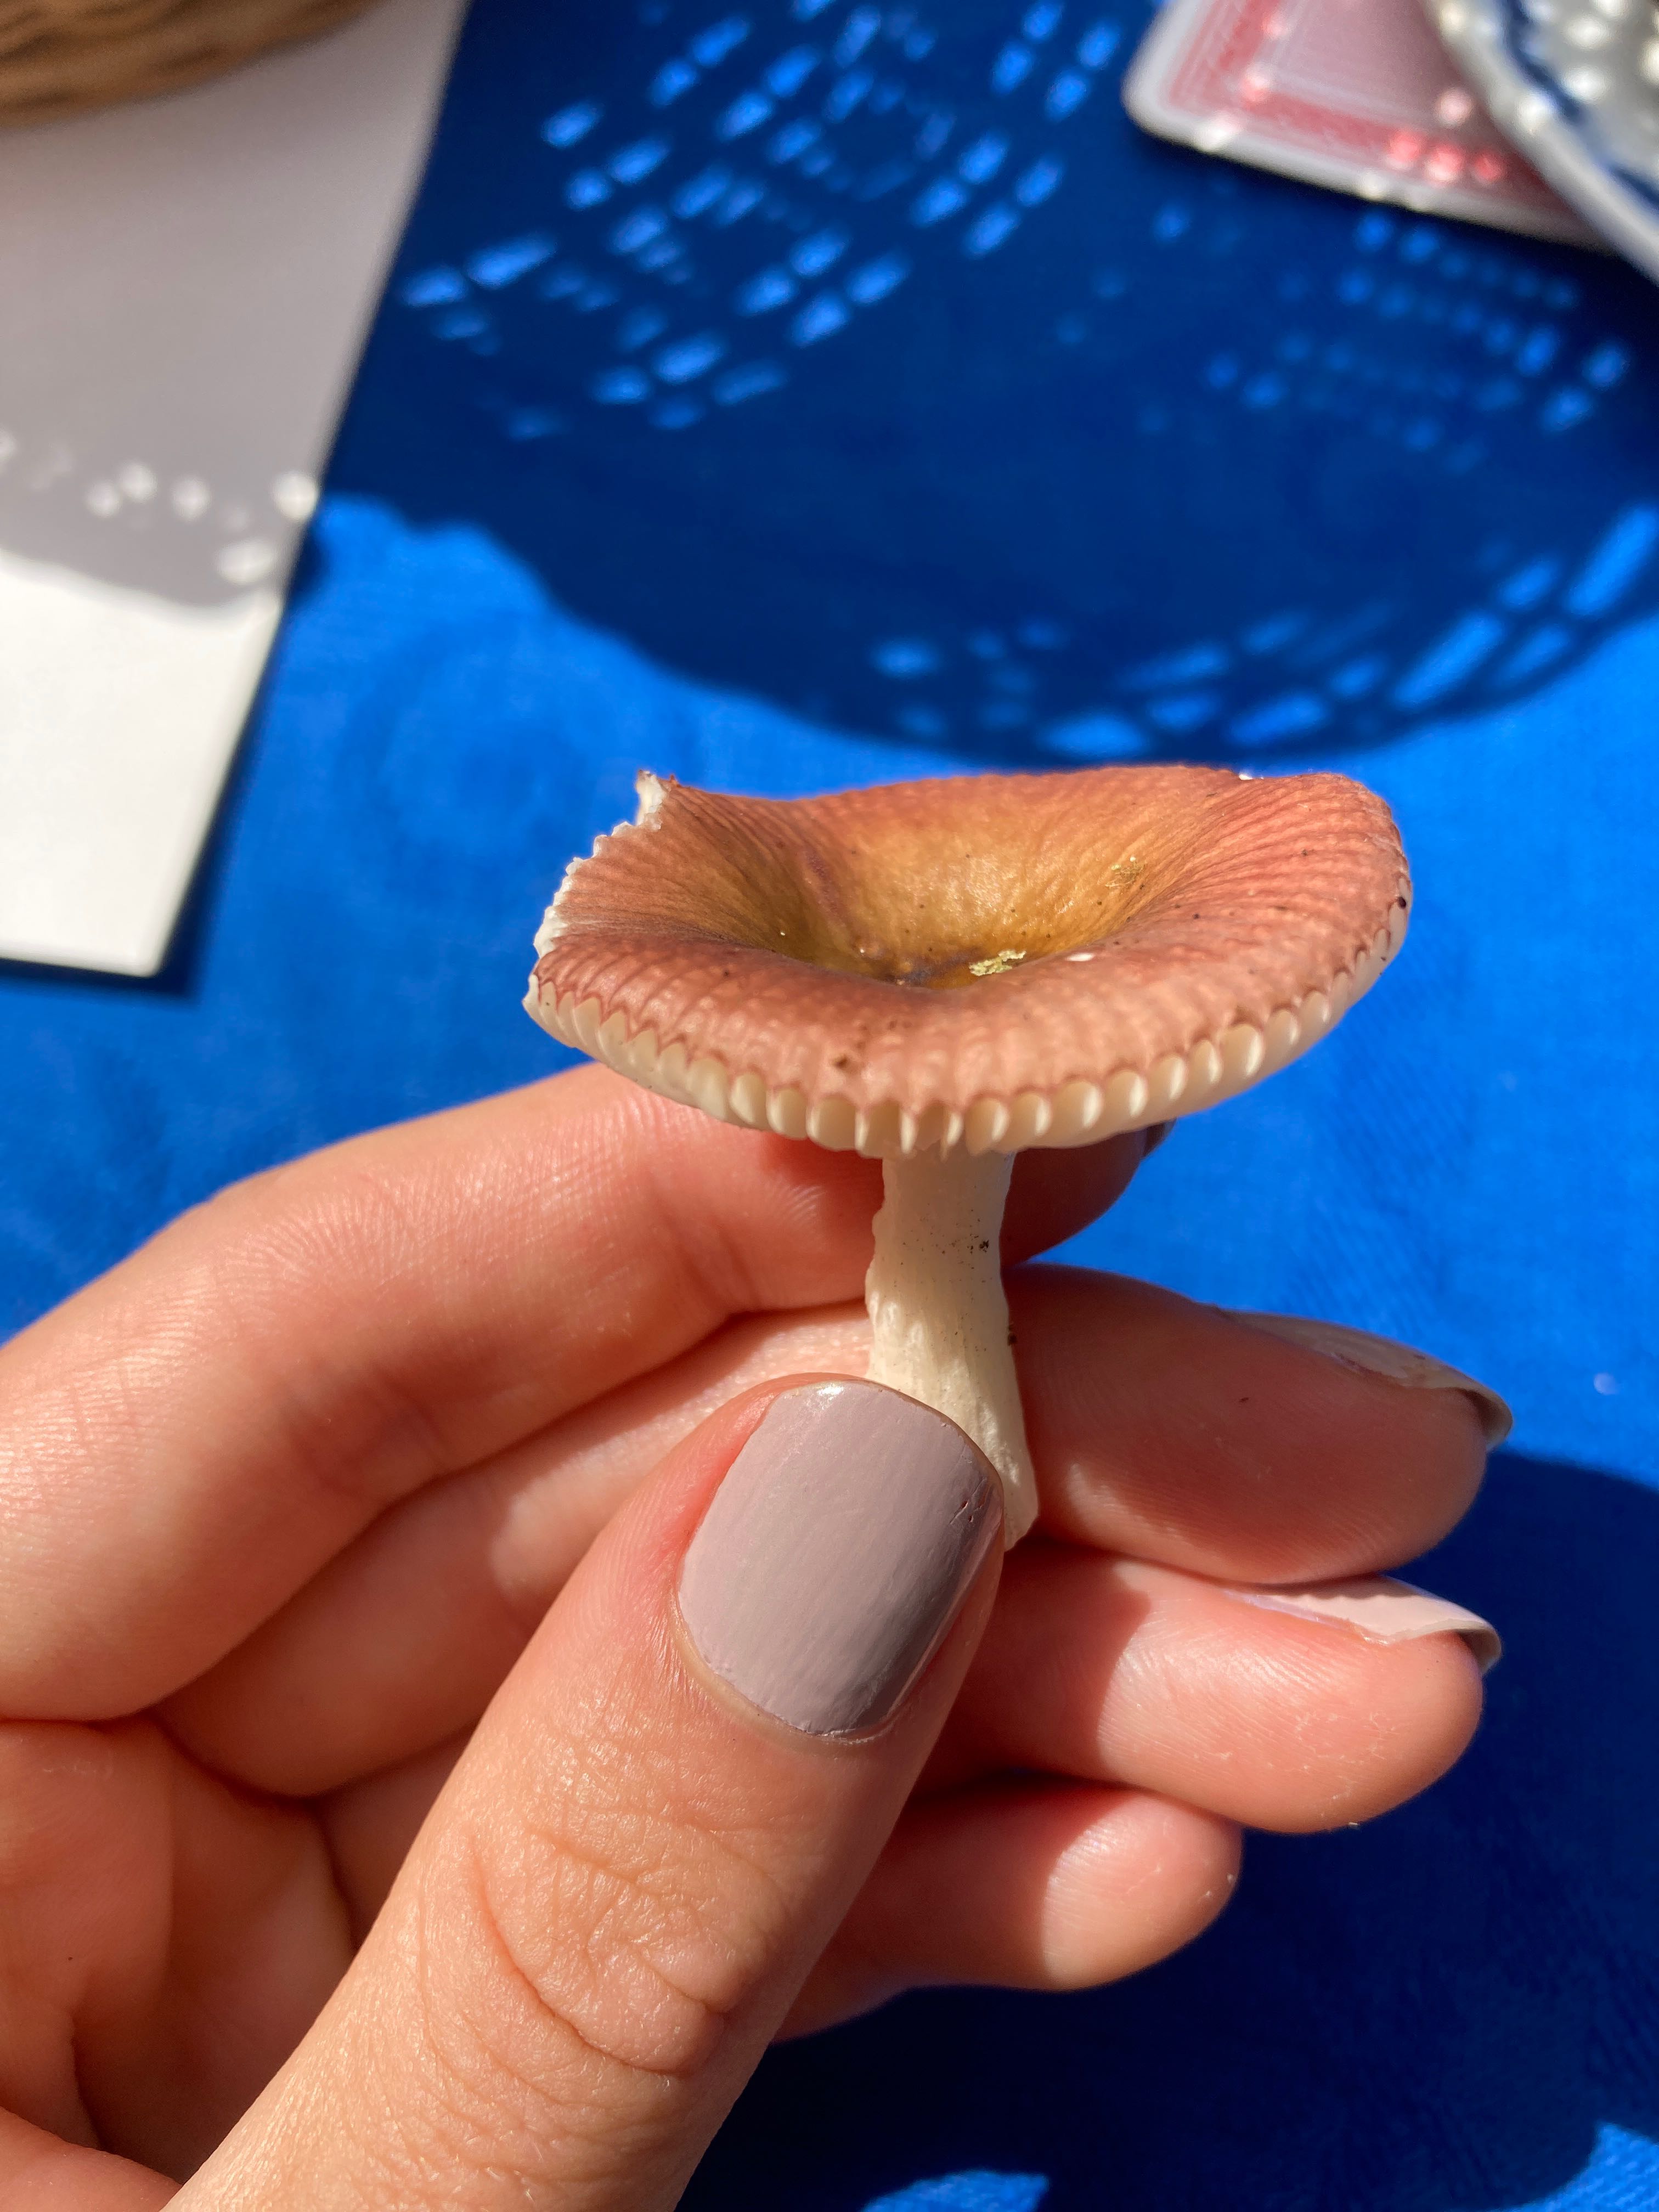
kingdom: Fungi
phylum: Basidiomycota
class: Agaricomycetes
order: Russulales
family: Russulaceae
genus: Russula
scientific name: Russula
